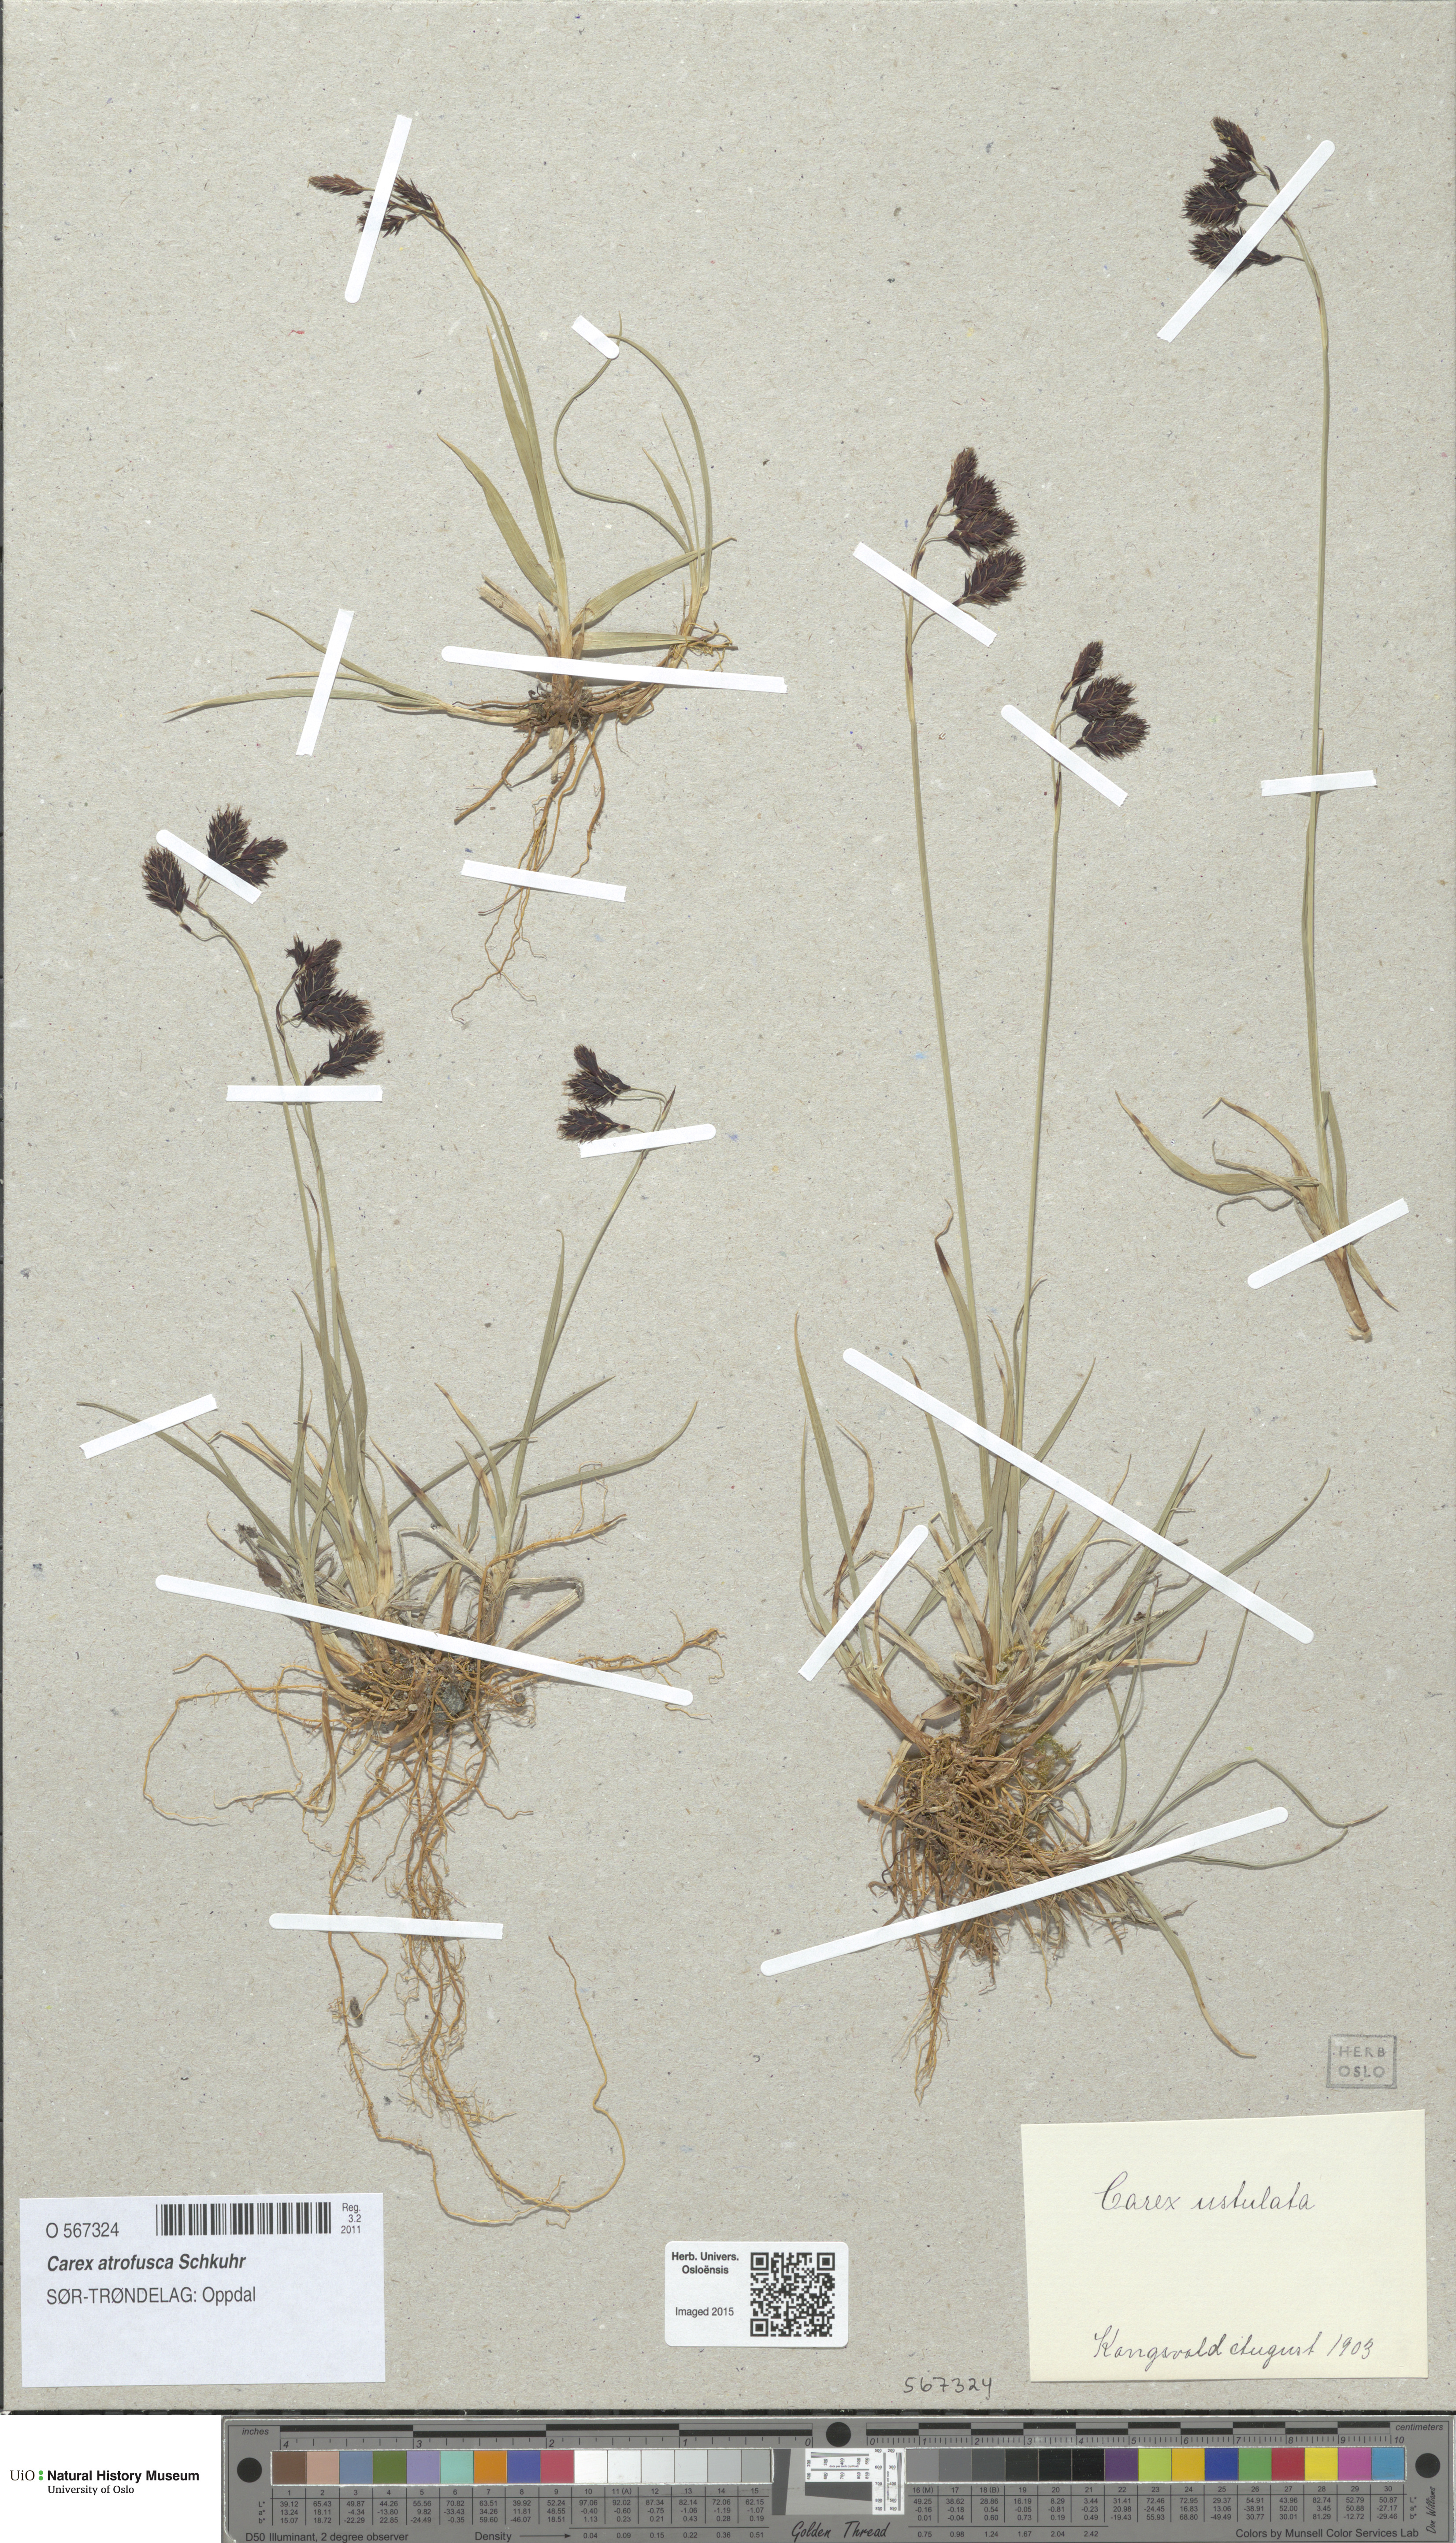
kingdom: Plantae
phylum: Tracheophyta
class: Liliopsida
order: Poales
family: Cyperaceae
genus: Carex
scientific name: Carex atrofusca
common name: Scorched alpine-sedge
